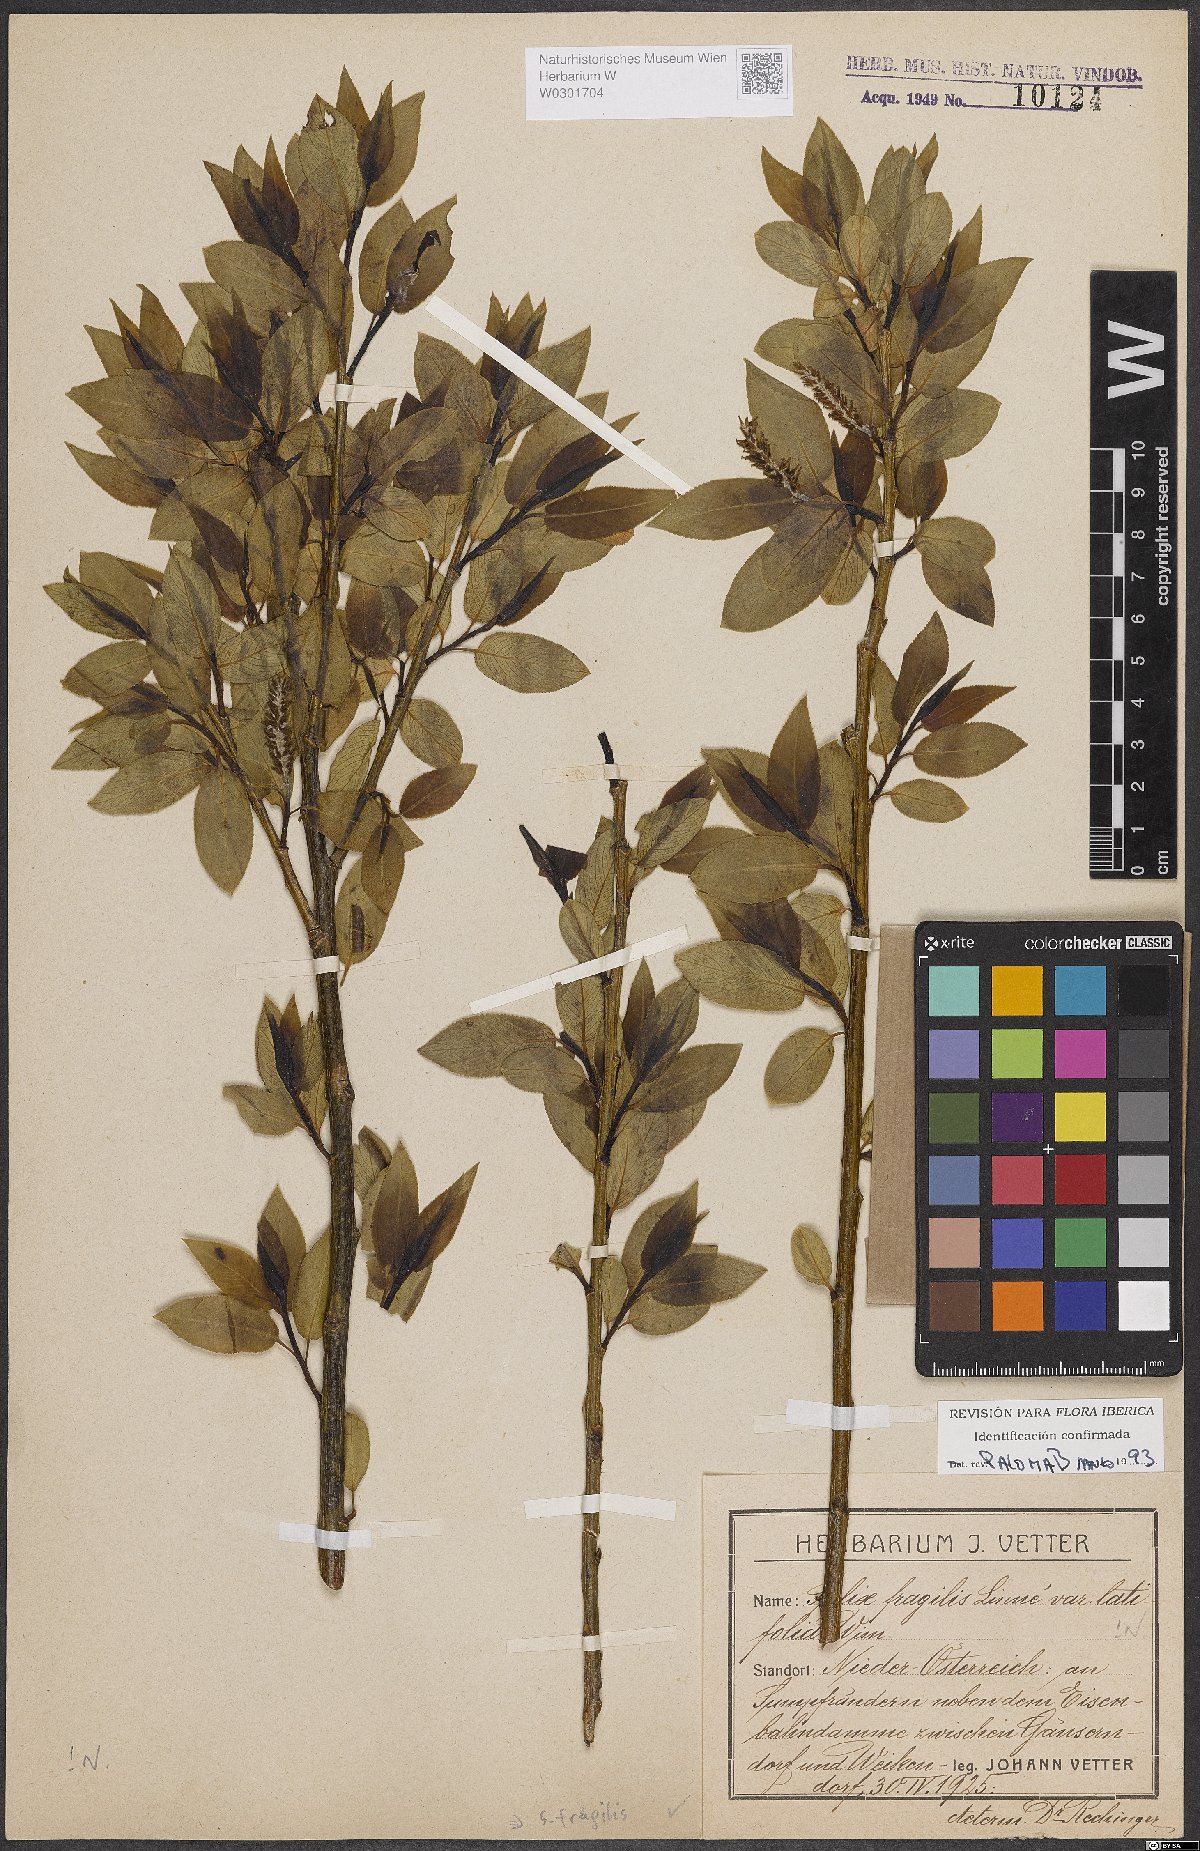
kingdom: Plantae
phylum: Tracheophyta
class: Magnoliopsida
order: Malpighiales
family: Salicaceae
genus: Salix
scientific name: Salix fragilis
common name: Crack willow
